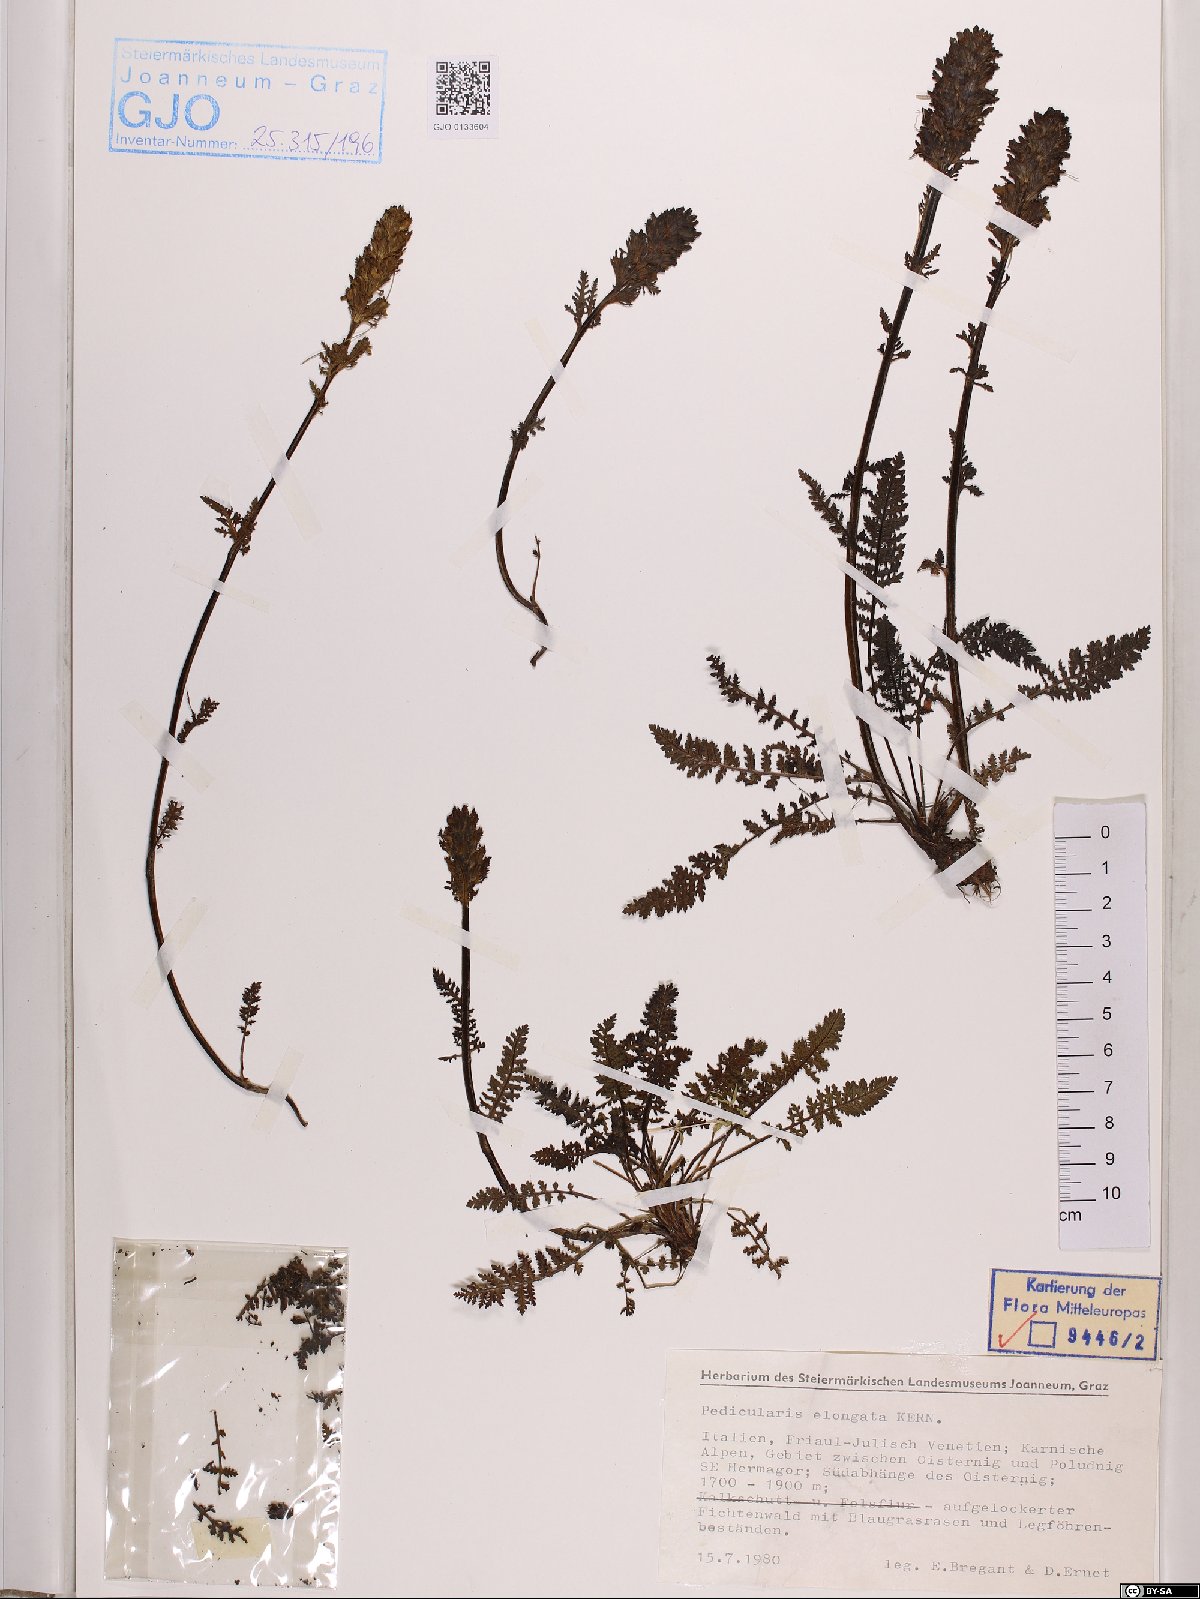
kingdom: Plantae
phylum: Tracheophyta
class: Magnoliopsida
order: Lamiales
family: Orobanchaceae
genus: Pedicularis
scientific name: Pedicularis elongata
